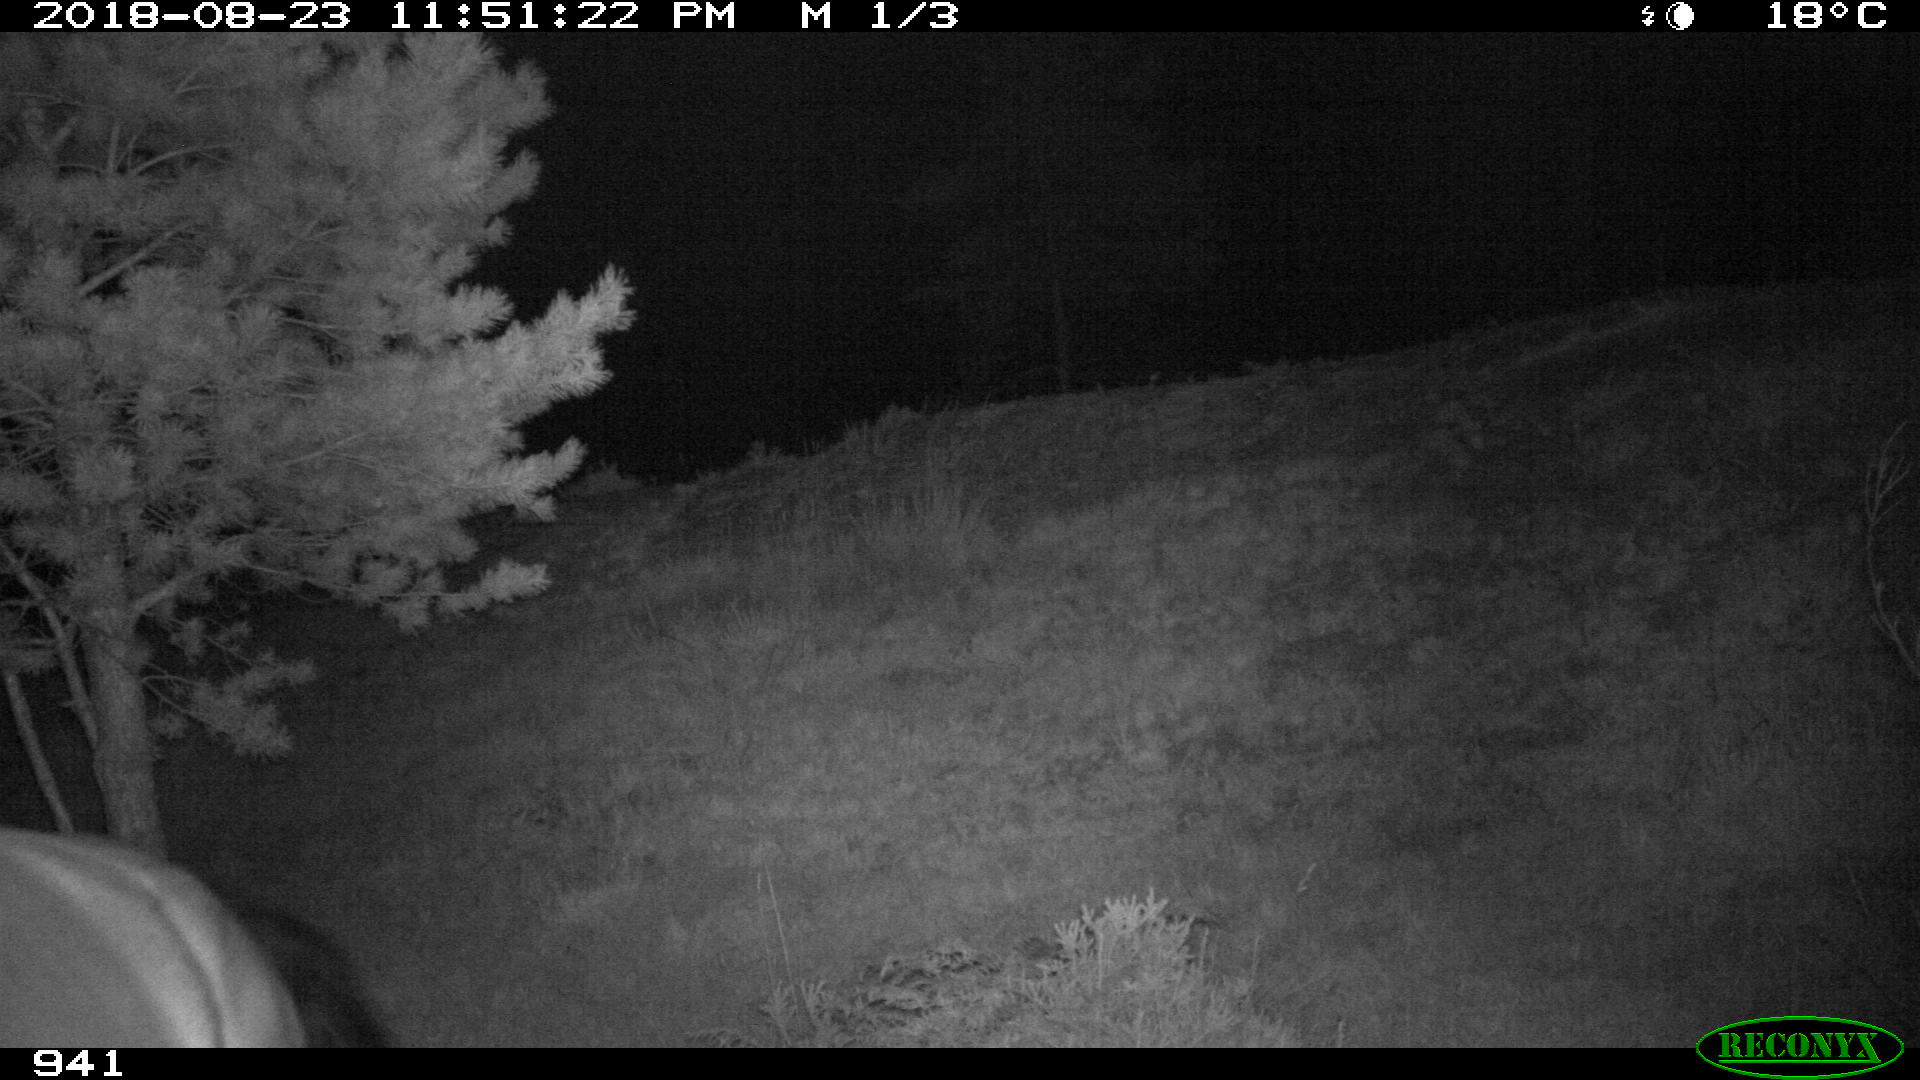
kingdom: Animalia
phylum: Chordata
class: Mammalia
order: Perissodactyla
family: Equidae
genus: Equus
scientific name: Equus caballus
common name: Horse
